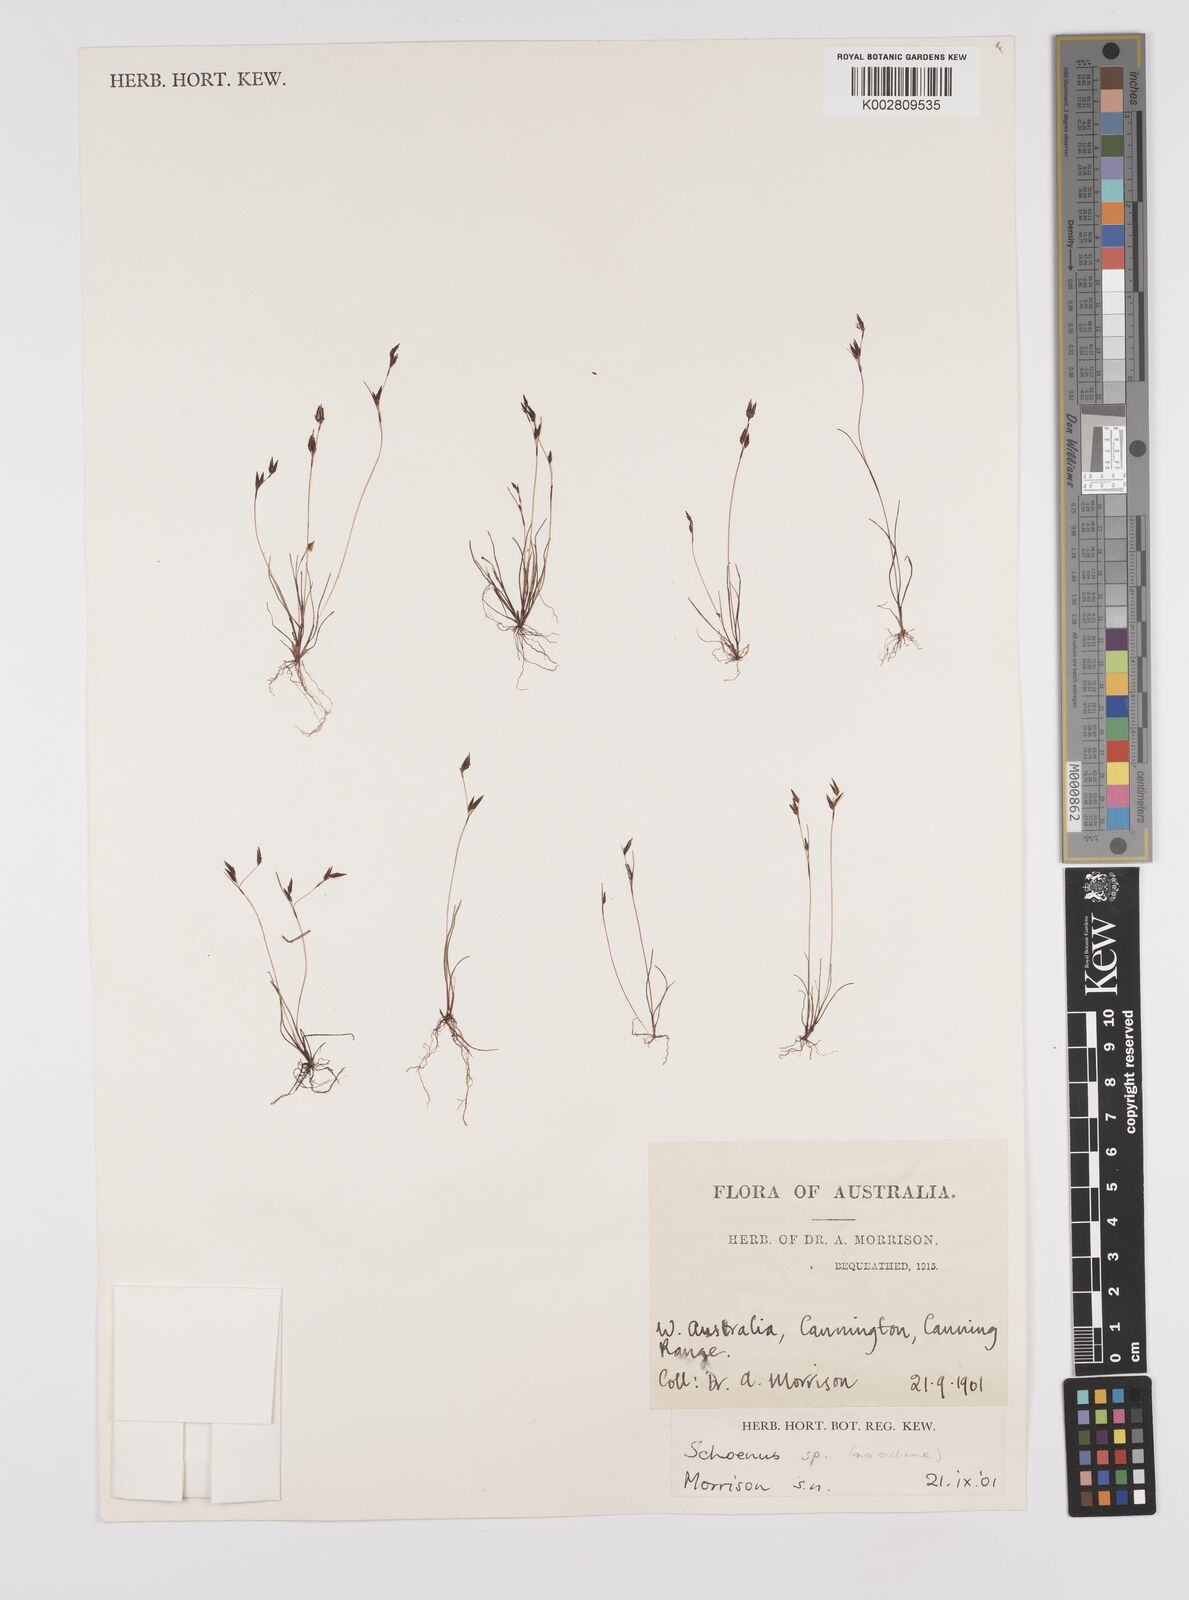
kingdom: Plantae
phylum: Tracheophyta
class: Liliopsida
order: Poales
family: Cyperaceae
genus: Schoenus
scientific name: Schoenus
